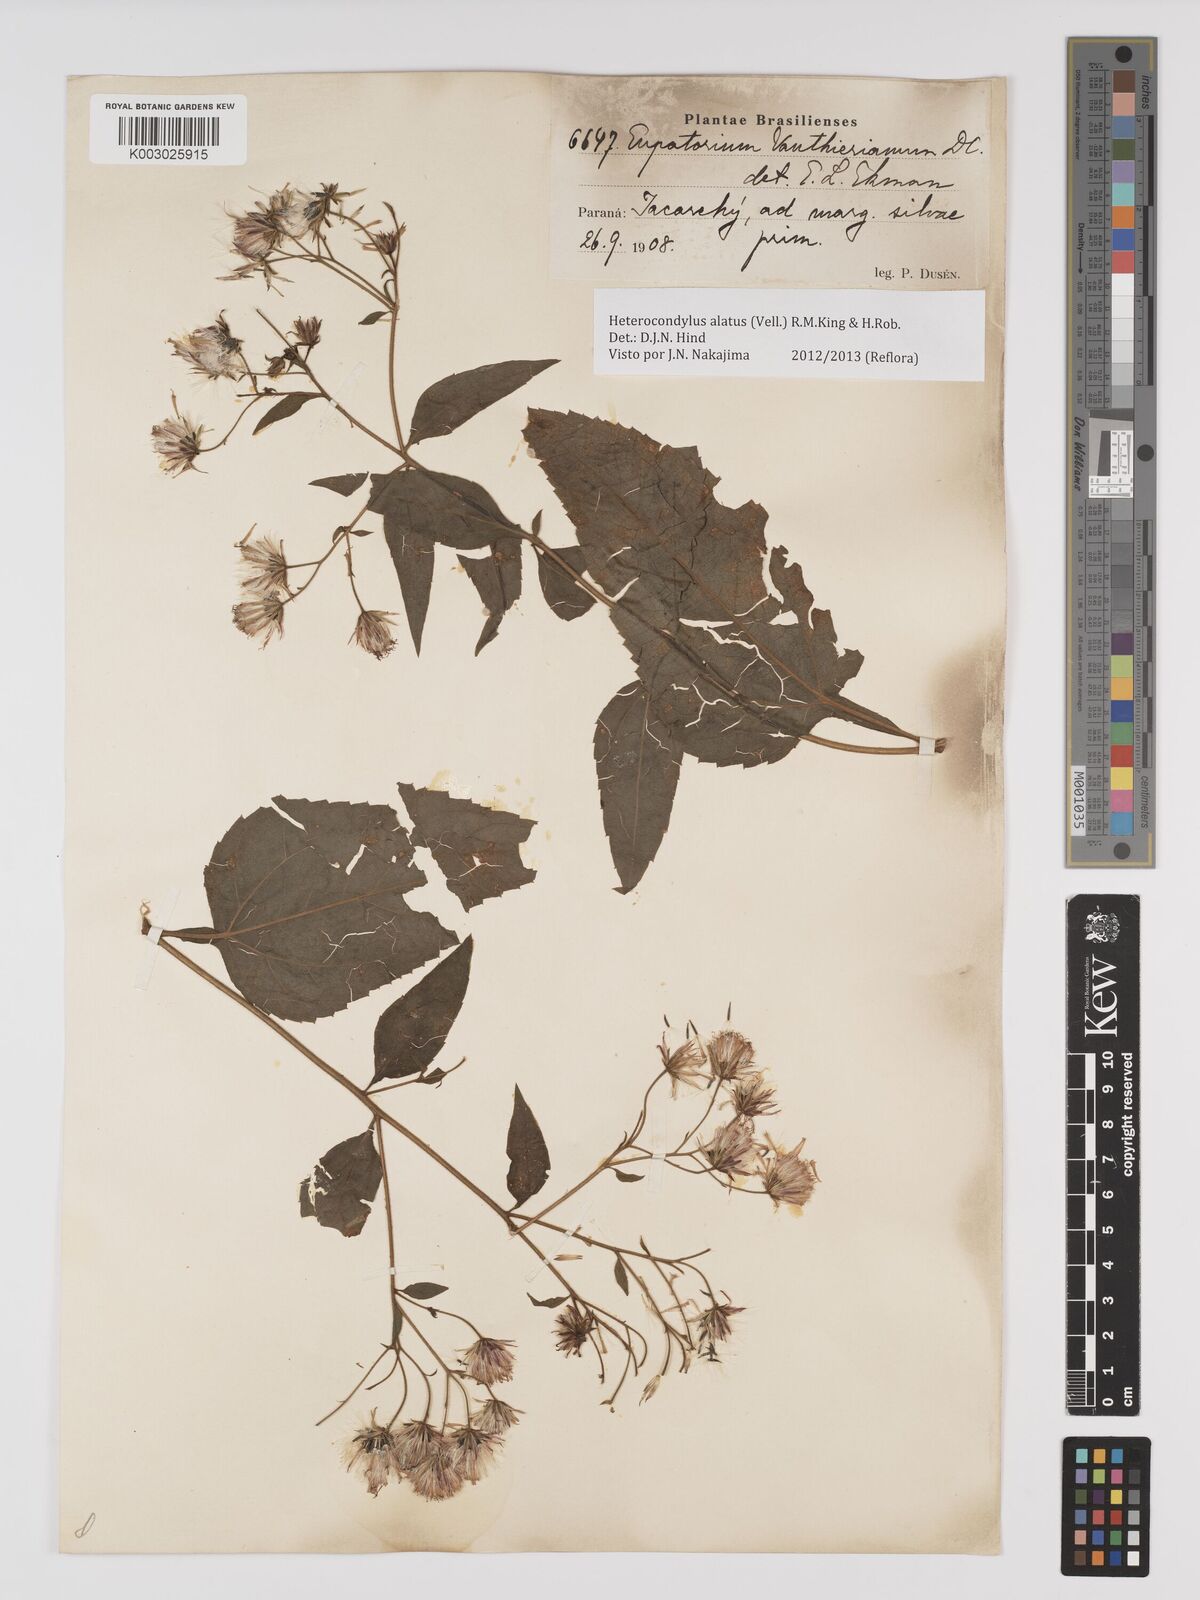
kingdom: Plantae
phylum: Tracheophyta
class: Magnoliopsida
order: Asterales
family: Asteraceae
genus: Heterocondylus
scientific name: Heterocondylus alatus
